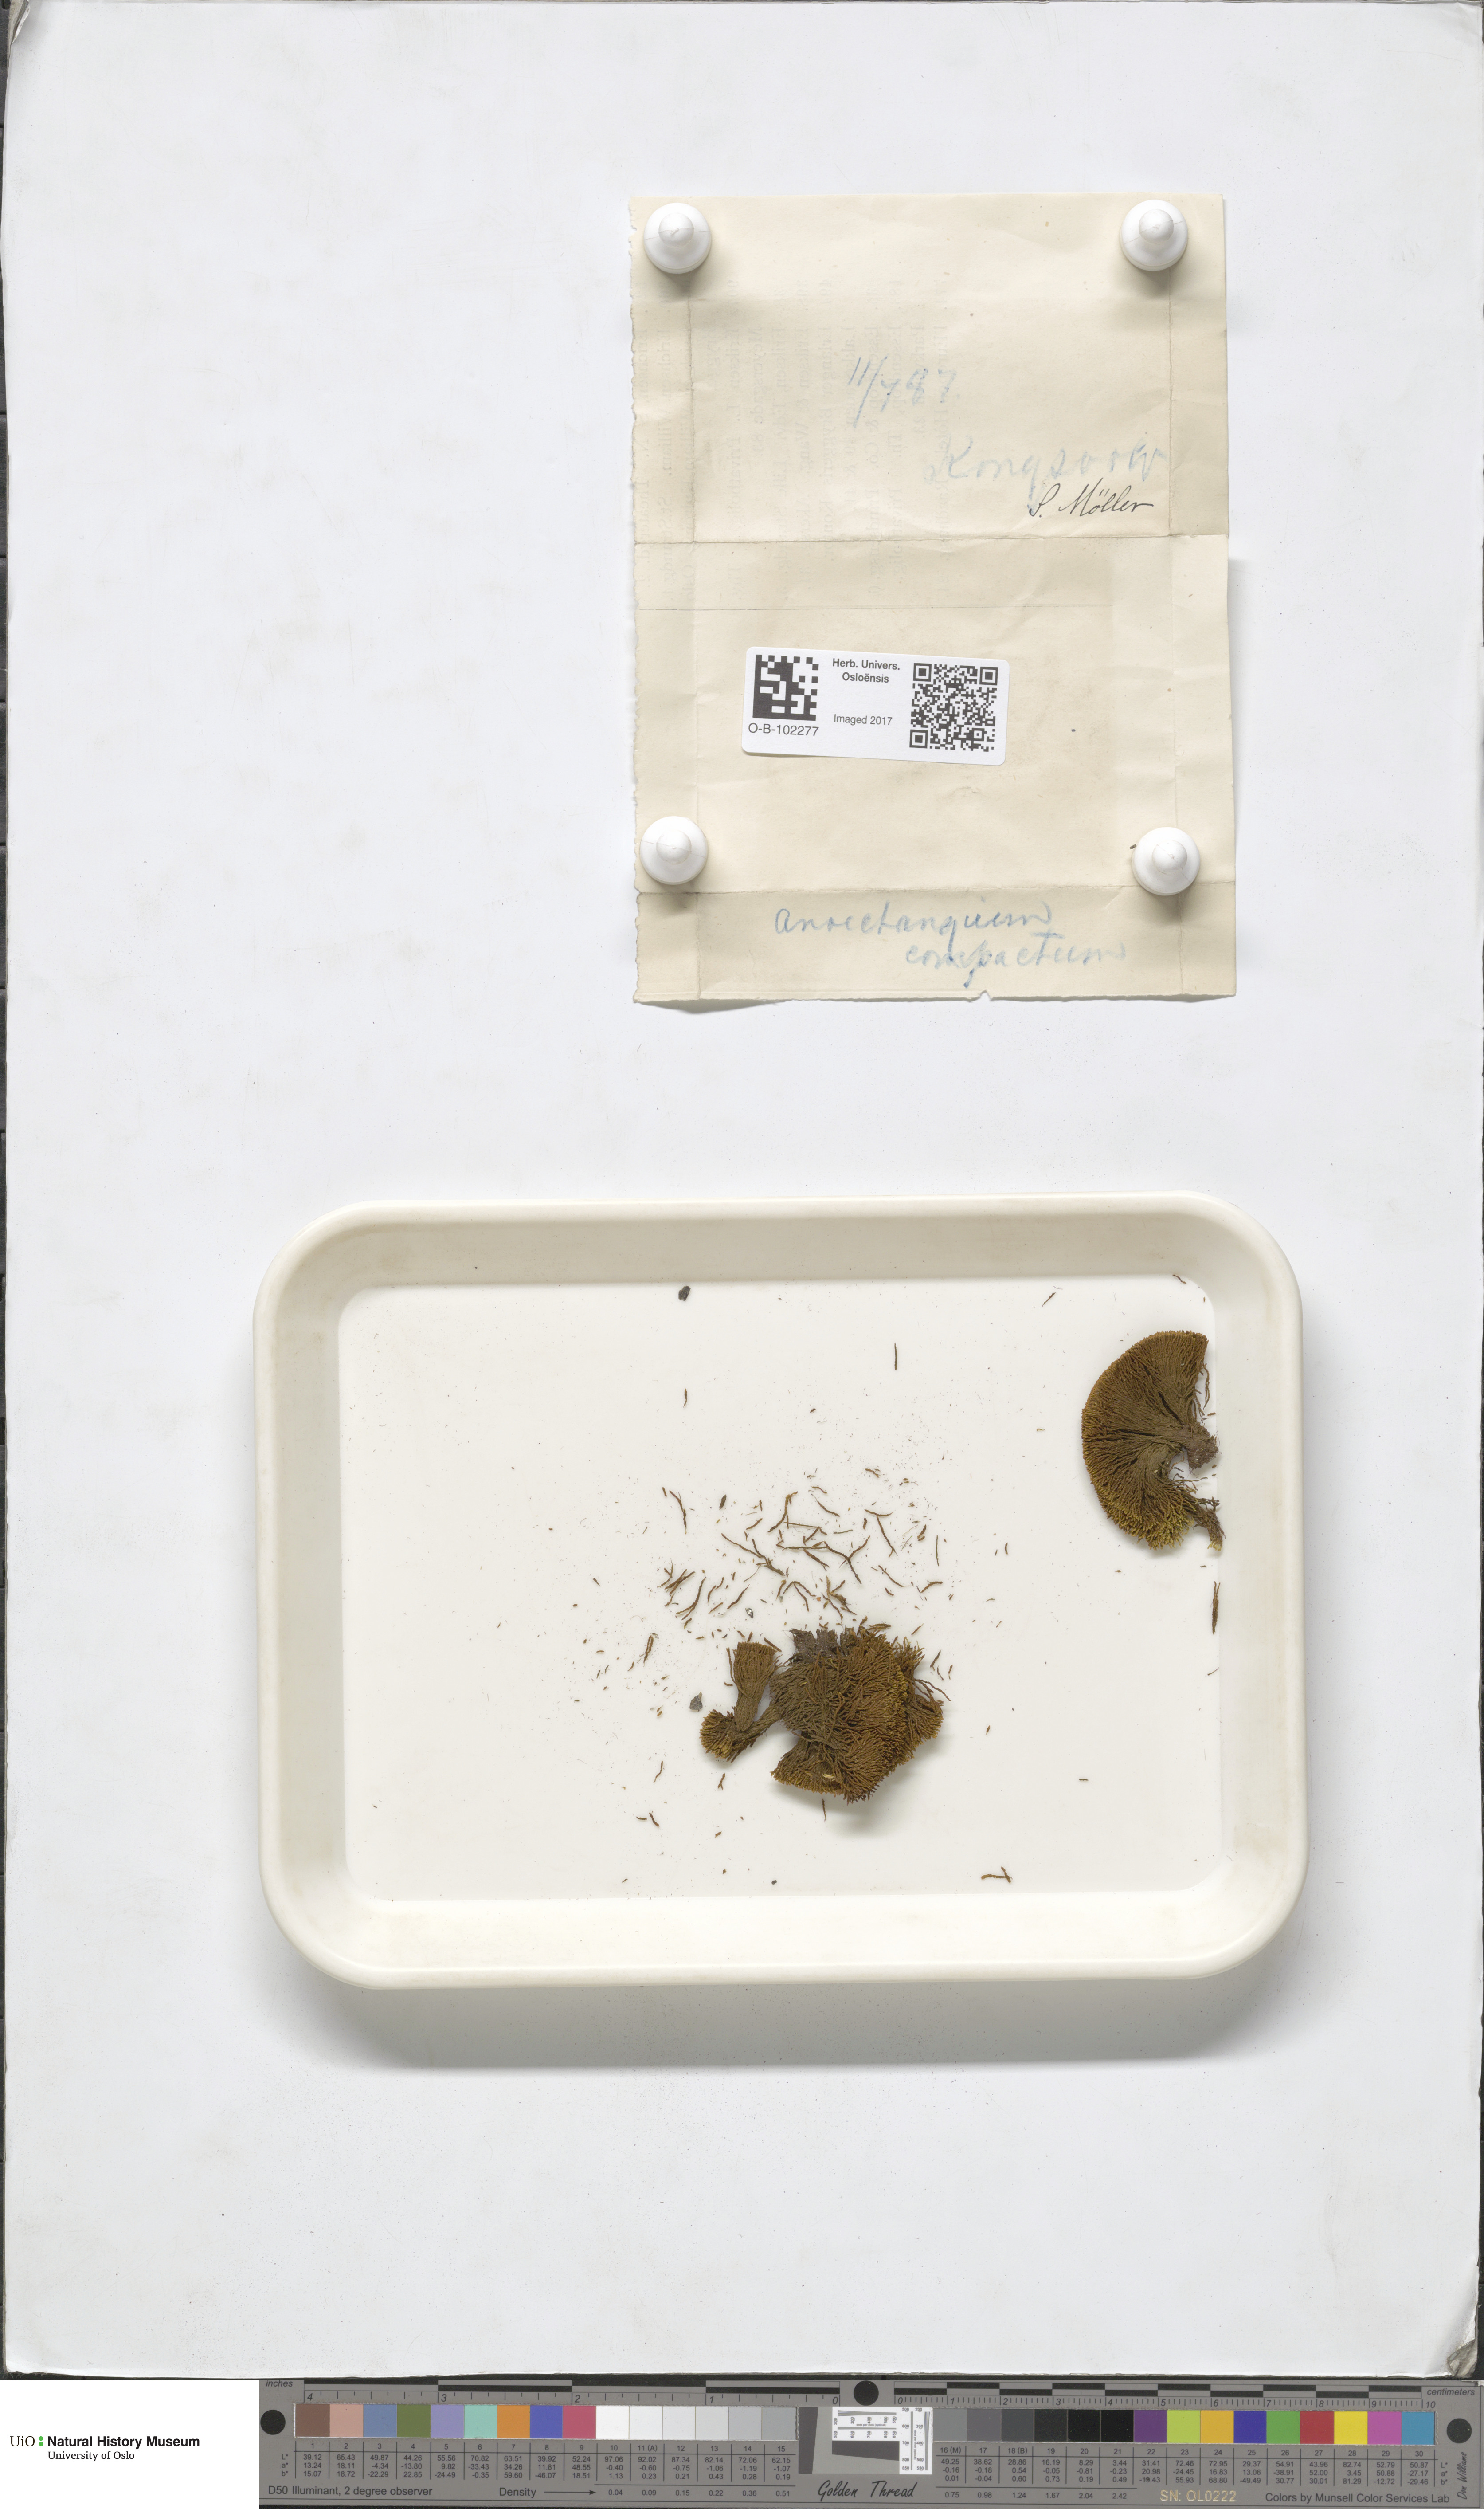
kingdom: Plantae
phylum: Bryophyta
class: Bryopsida
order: Pottiales
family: Pottiaceae
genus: Anoectangium
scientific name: Anoectangium aestivum
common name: Summer-moss
